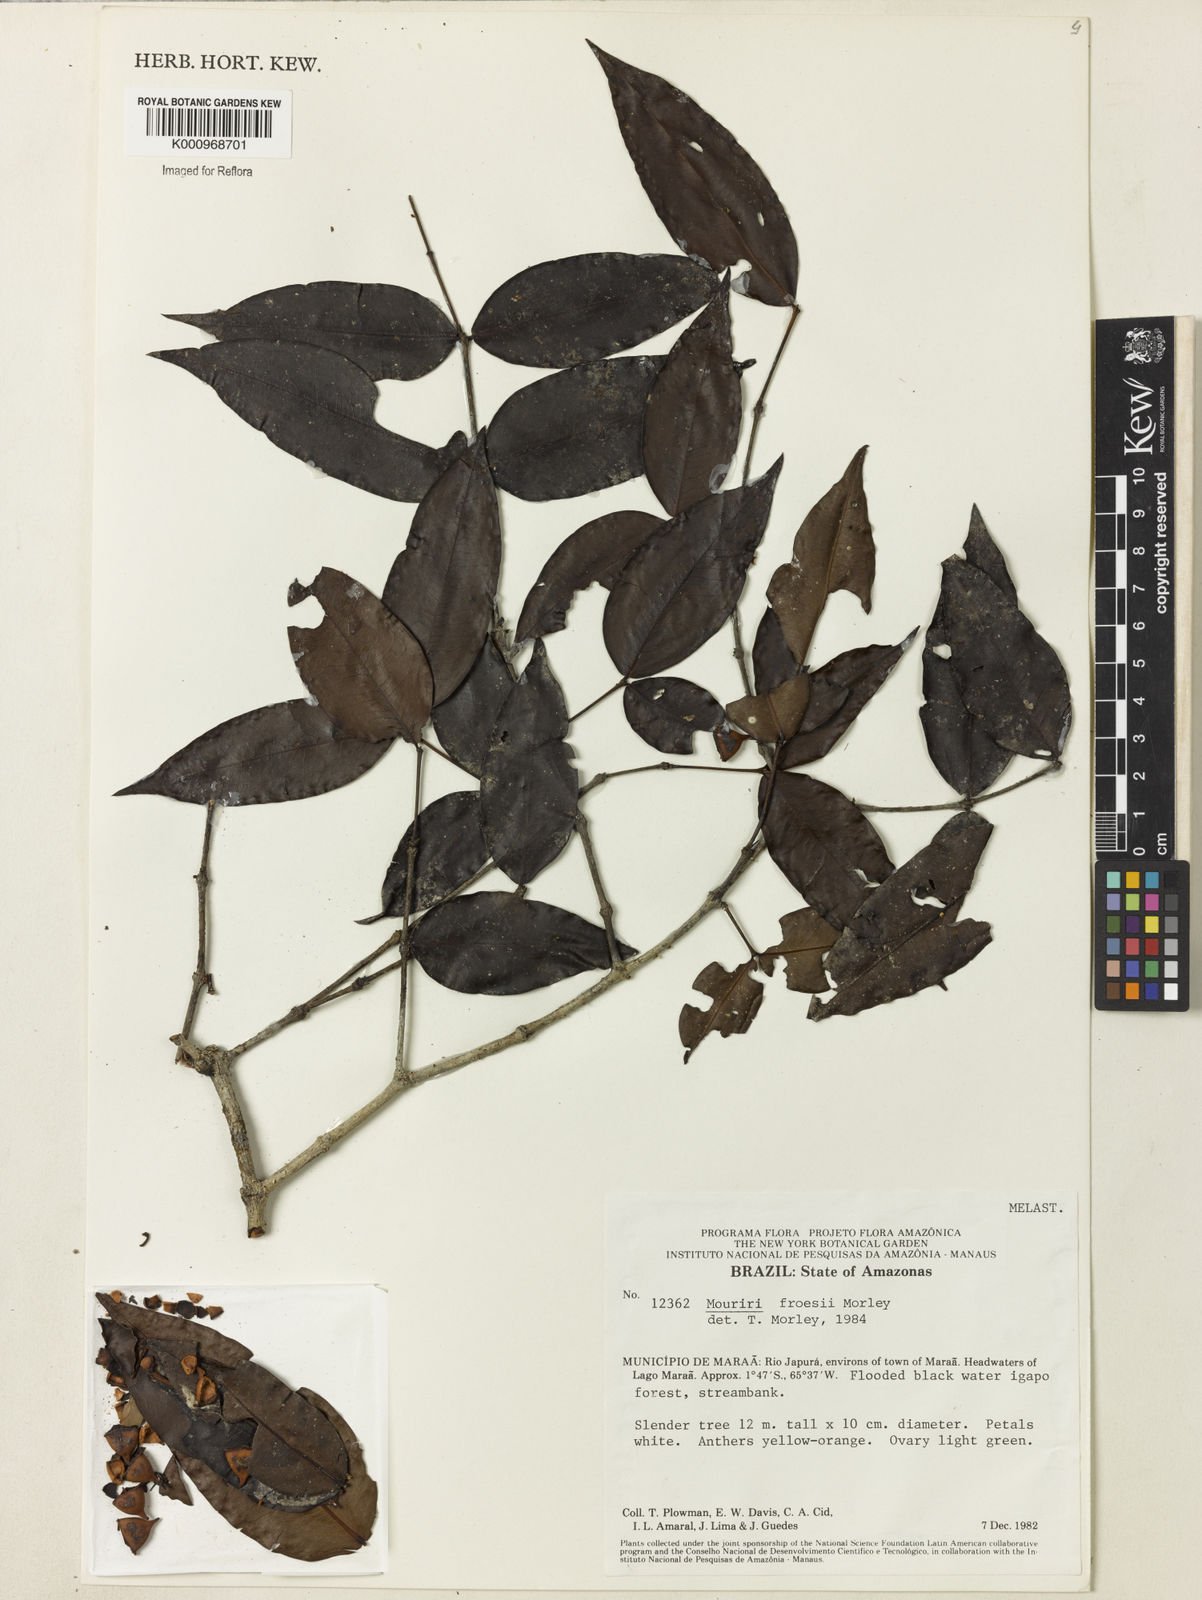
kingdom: Plantae
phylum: Tracheophyta
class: Magnoliopsida
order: Myrtales
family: Melastomataceae
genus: Mouriri
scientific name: Mouriri froesii
